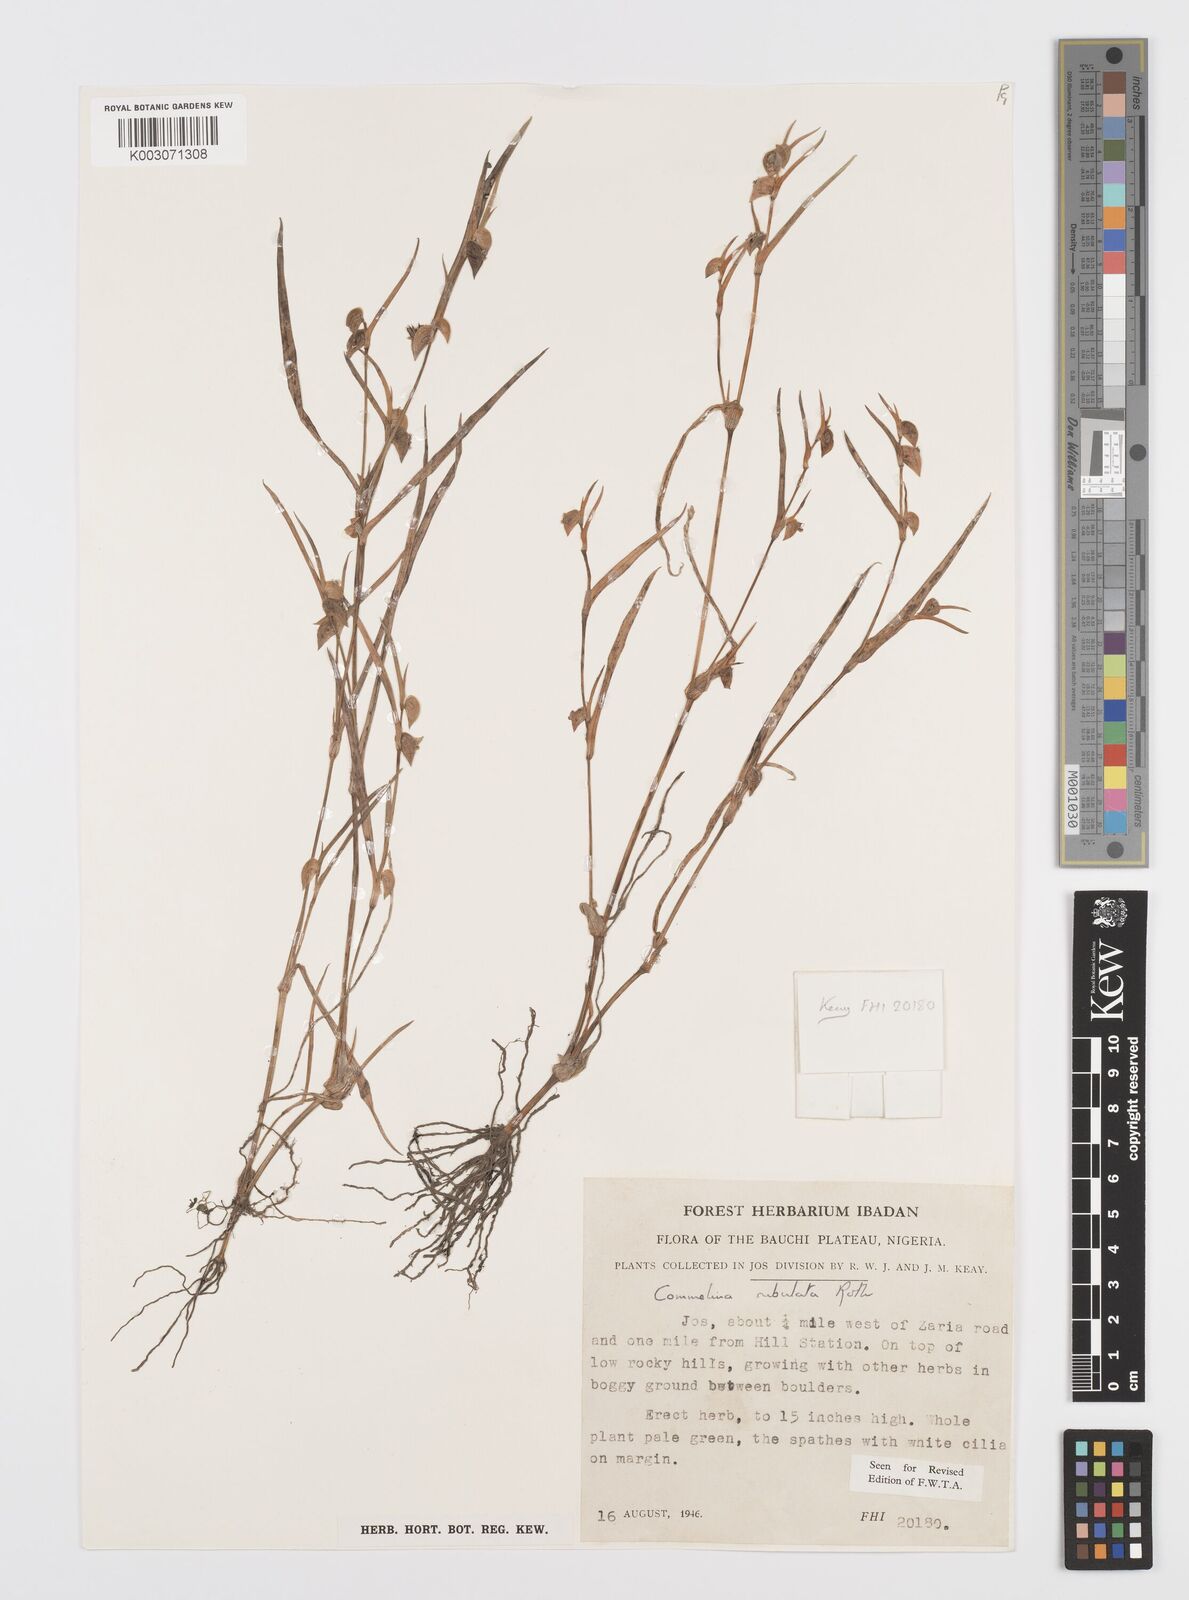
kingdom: Plantae
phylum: Tracheophyta
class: Liliopsida
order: Commelinales
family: Commelinaceae
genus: Commelina
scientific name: Commelina subulata
